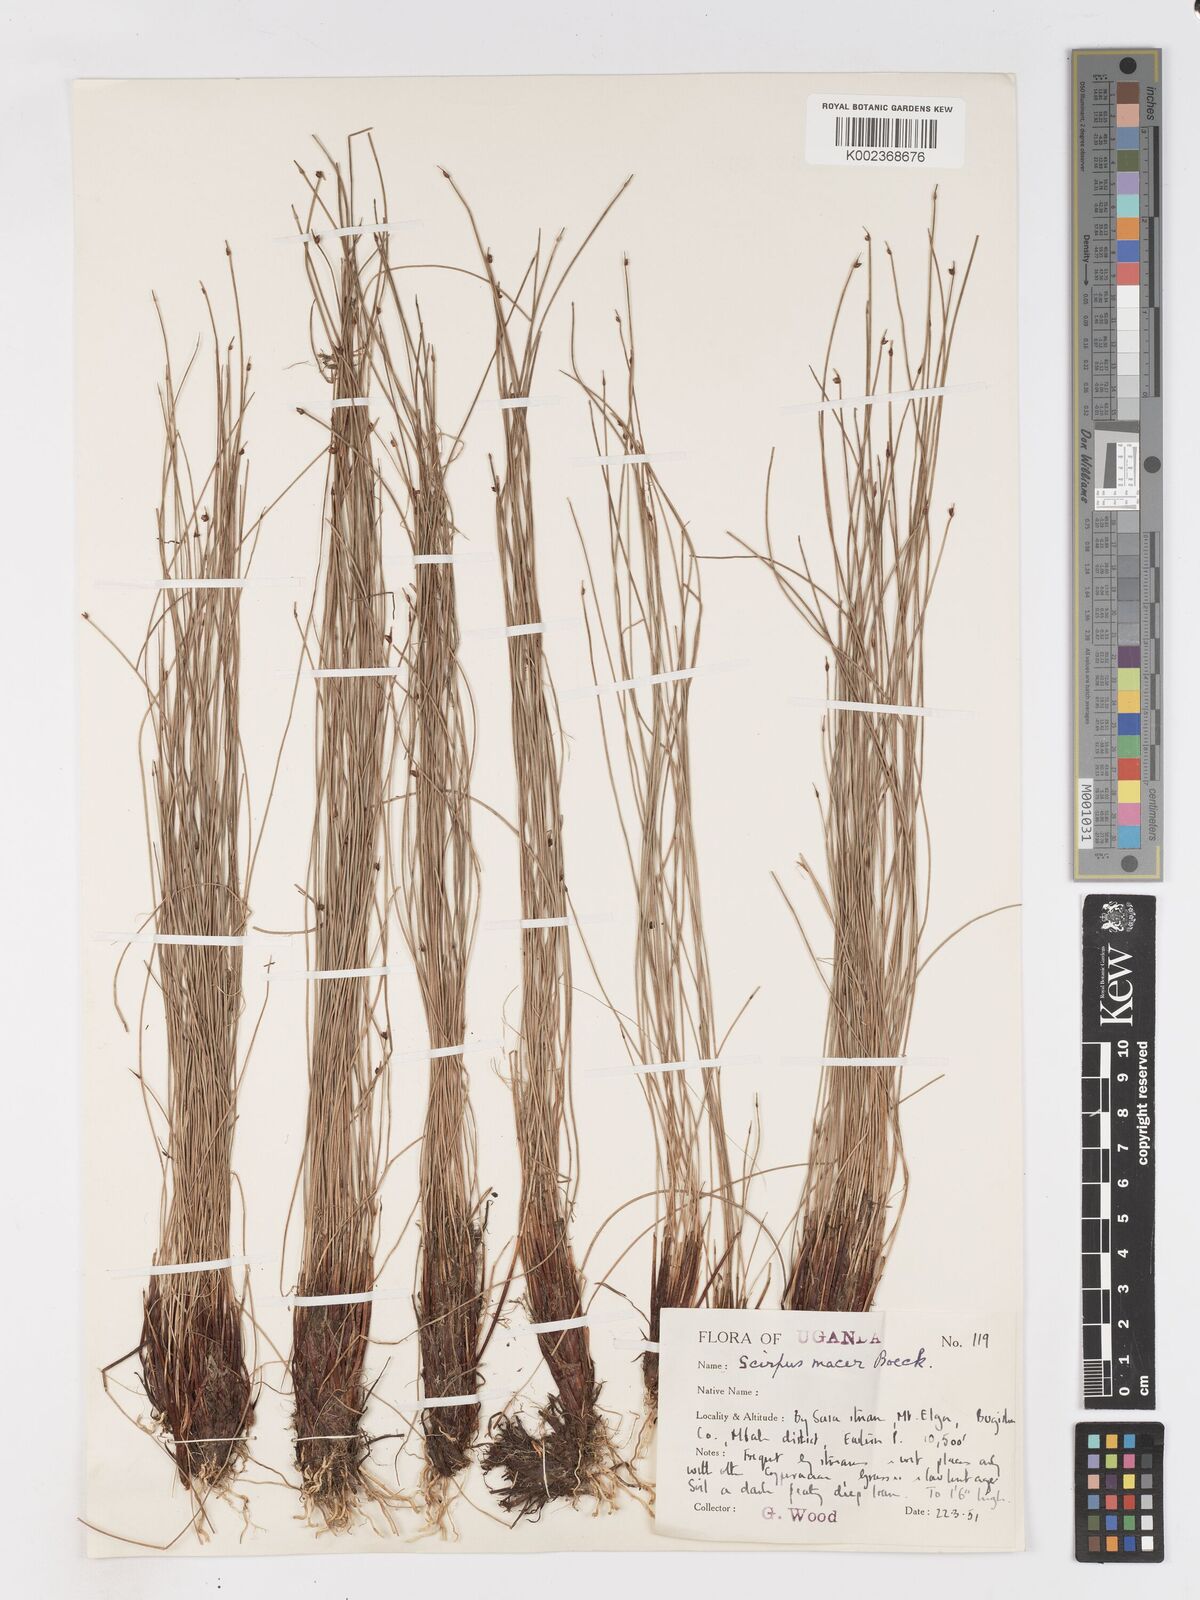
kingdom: Plantae
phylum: Tracheophyta
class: Liliopsida
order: Poales
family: Cyperaceae
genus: Isolepis
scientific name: Isolepis costata
